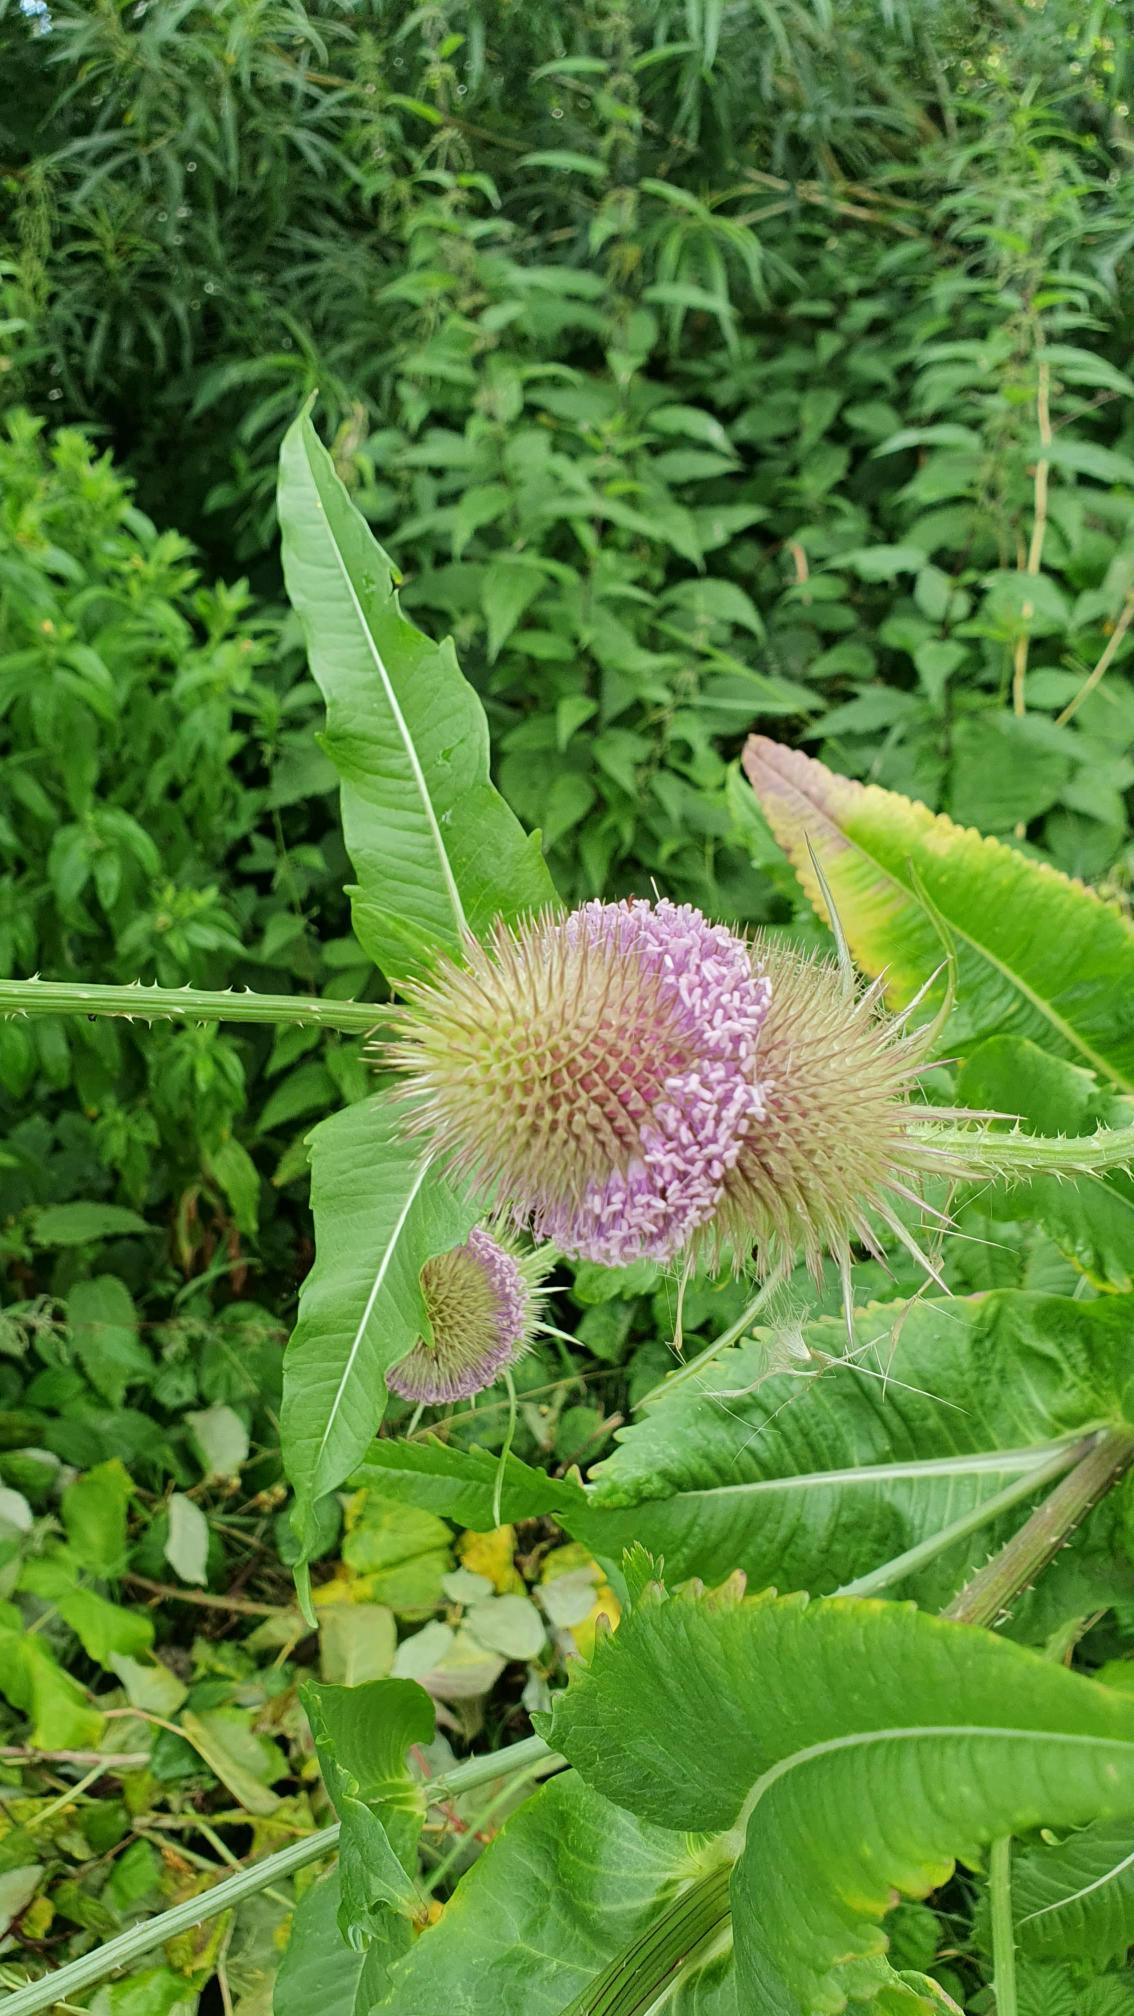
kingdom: Plantae
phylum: Tracheophyta
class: Magnoliopsida
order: Dipsacales
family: Caprifoliaceae
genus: Dipsacus
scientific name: Dipsacus fullonum
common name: Gærde-kartebolle
